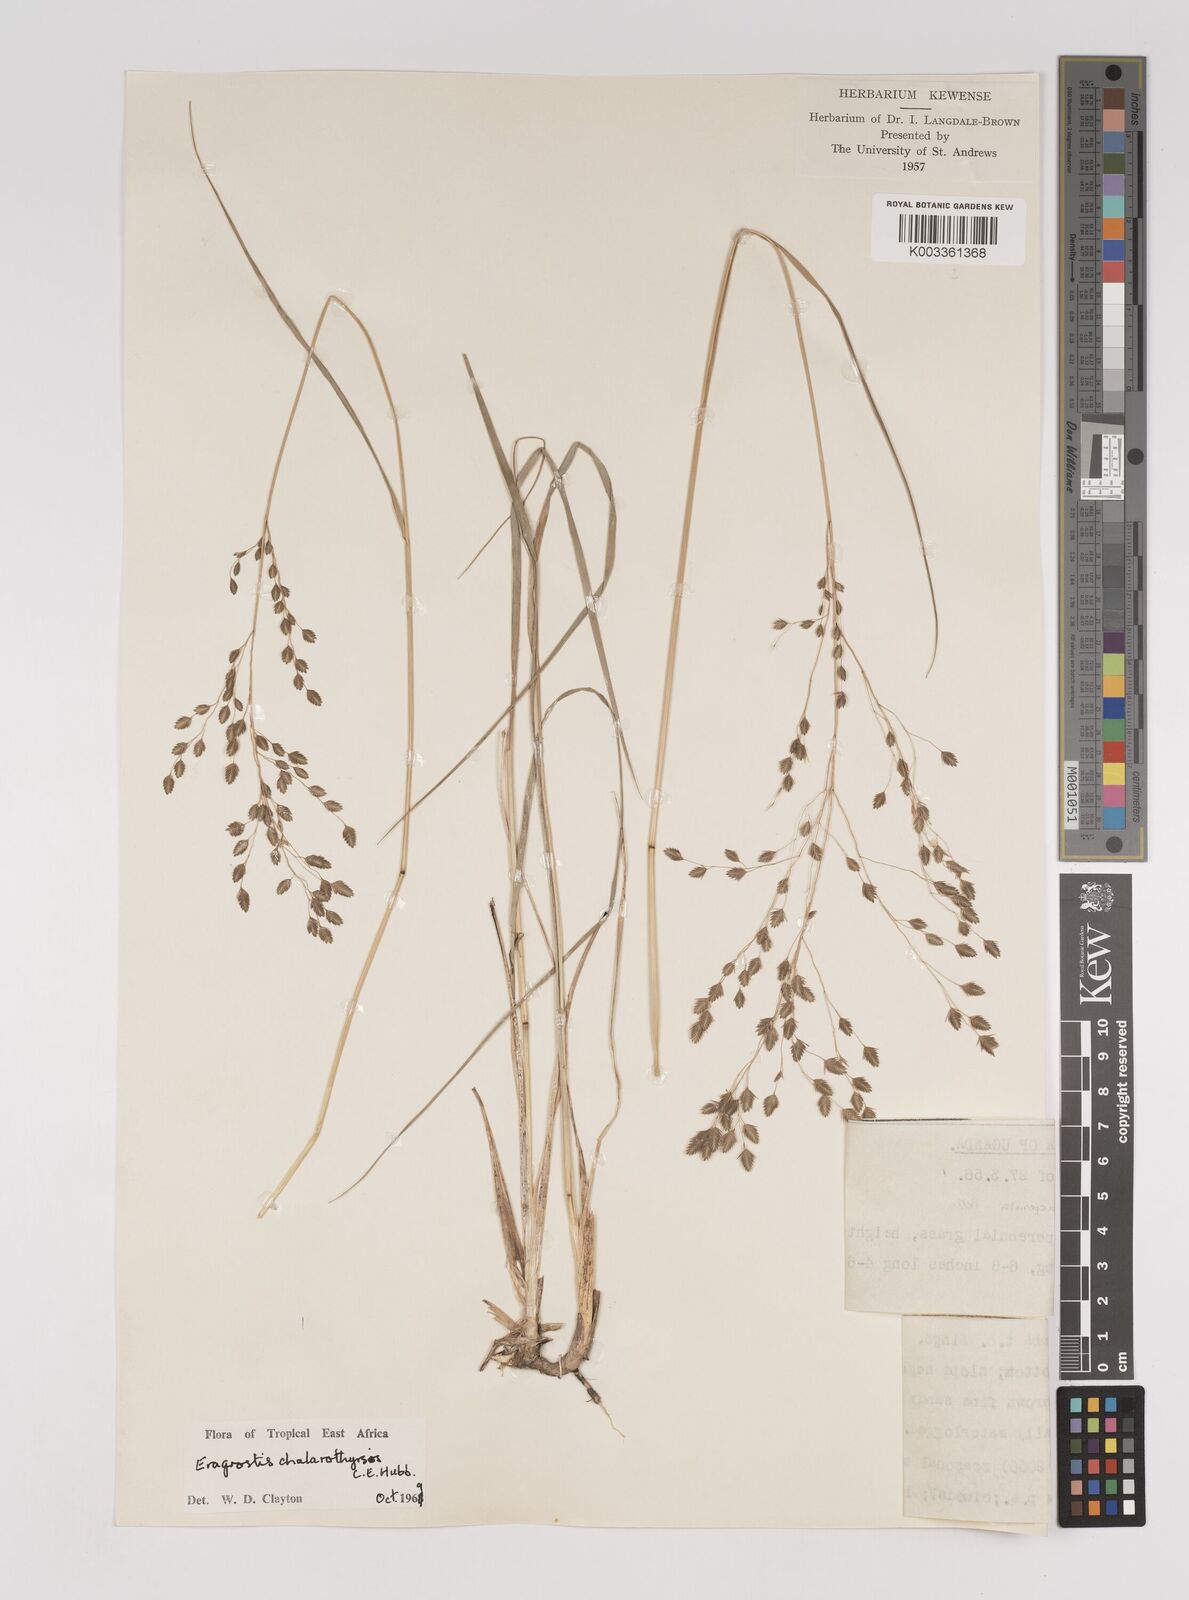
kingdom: Plantae
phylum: Tracheophyta
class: Liliopsida
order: Poales
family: Poaceae
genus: Eragrostis
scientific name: Eragrostis chalarothyrsos
